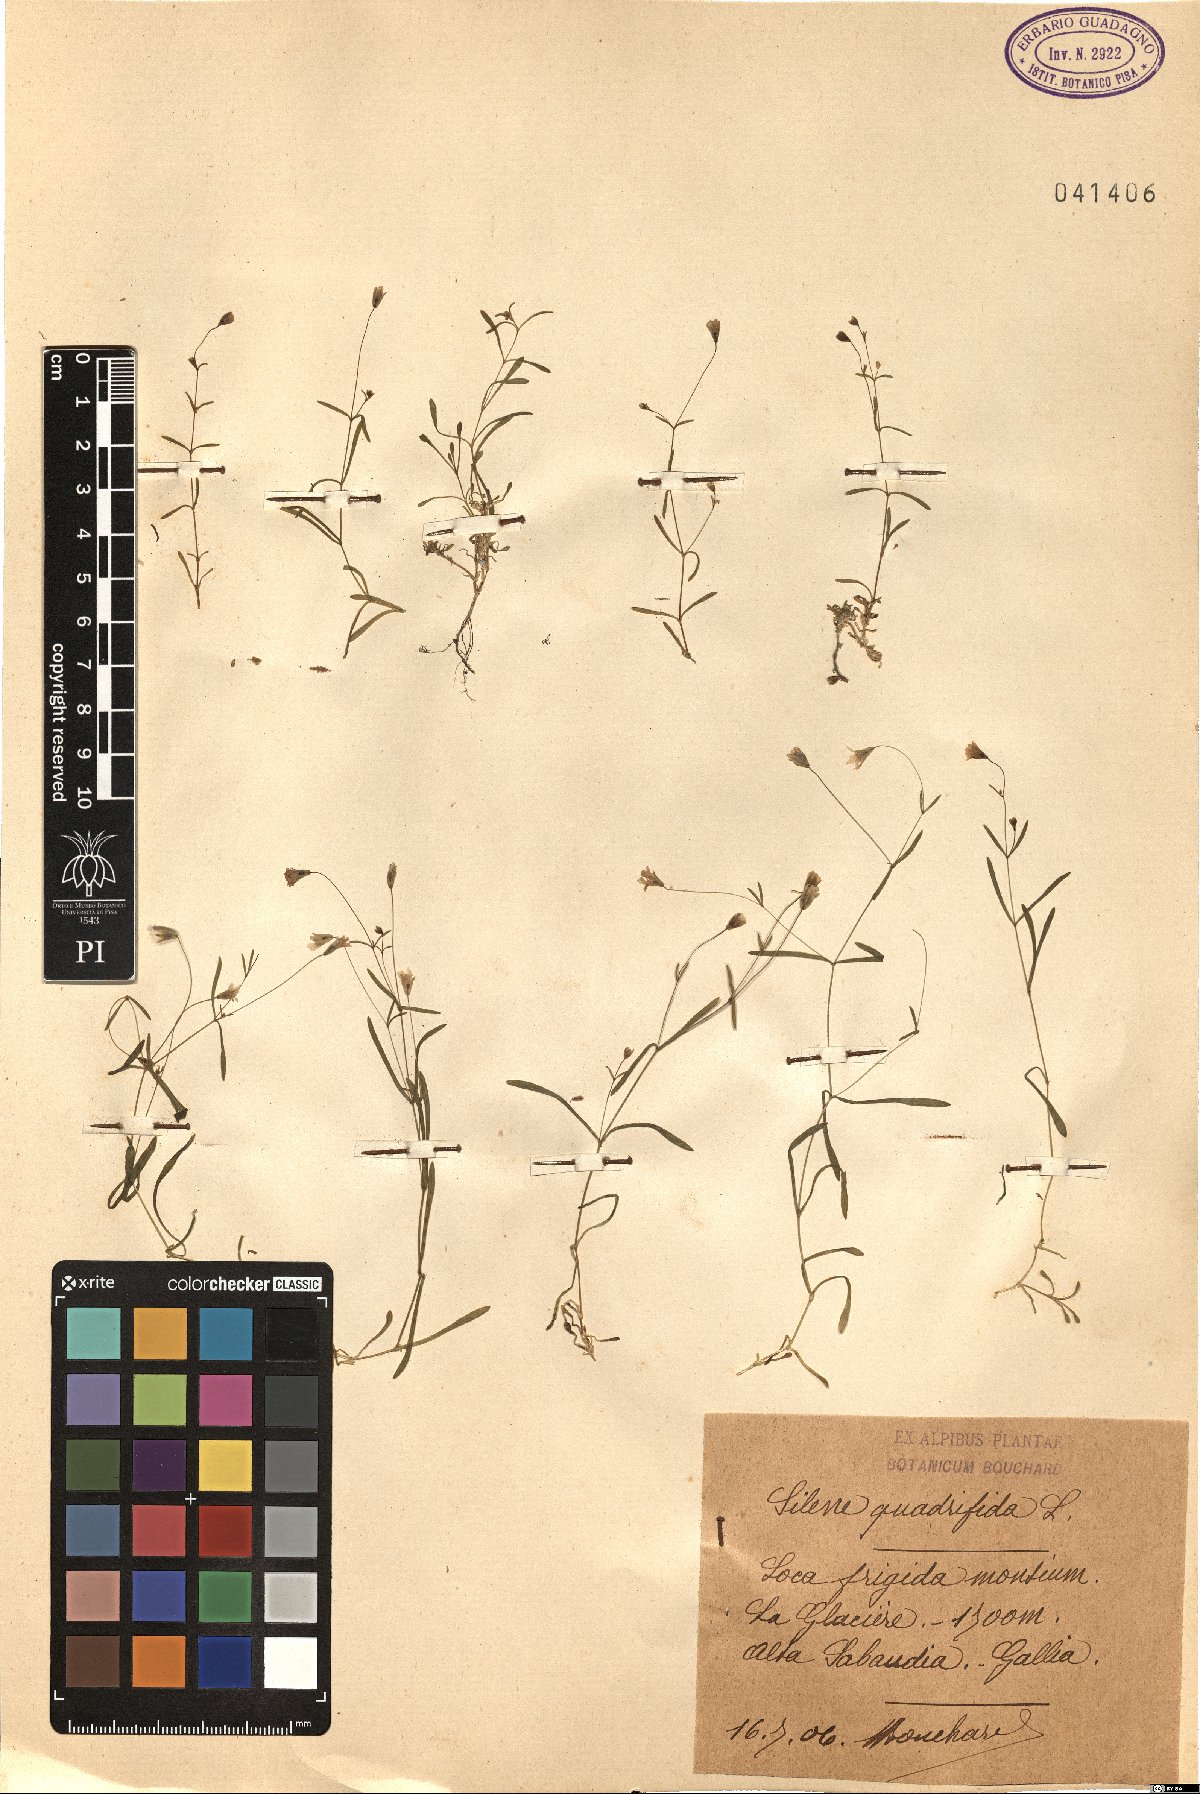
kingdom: Plantae
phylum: Tracheophyta
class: Magnoliopsida
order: Caryophyllales
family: Caryophyllaceae
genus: Heliosperma
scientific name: Heliosperma alpestre
